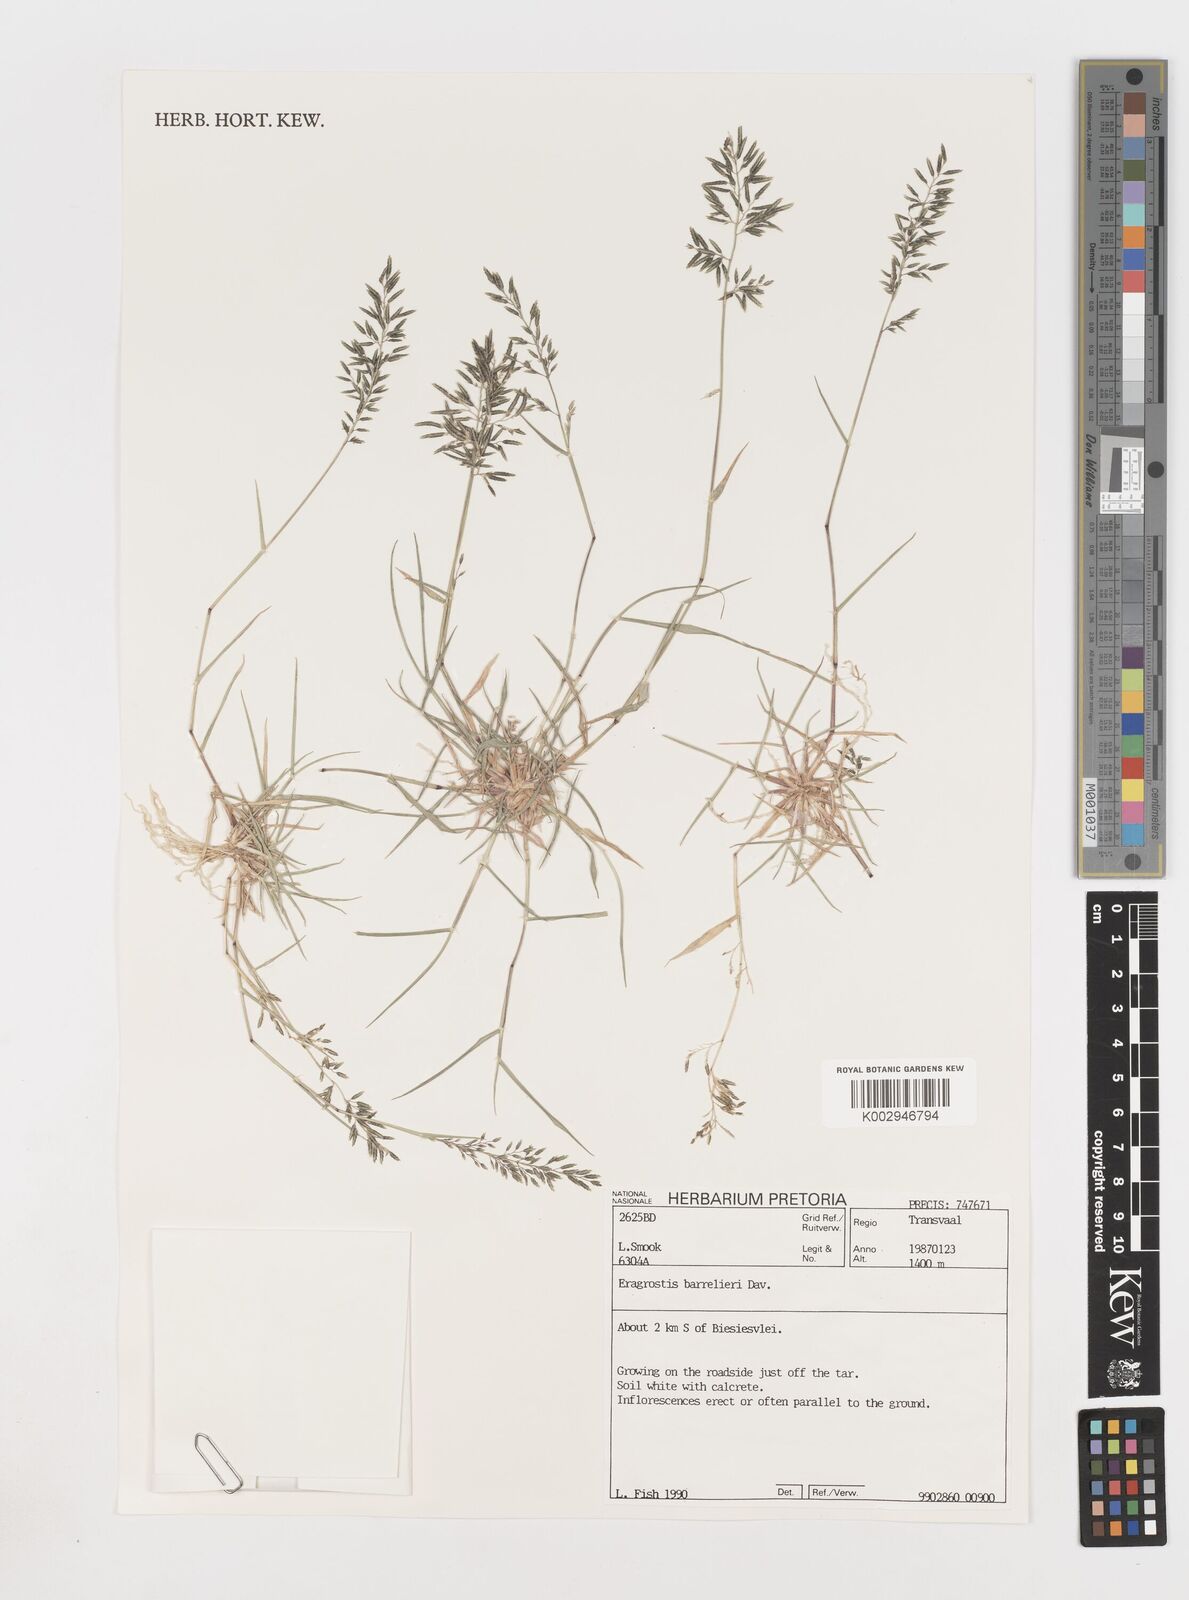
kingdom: Plantae
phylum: Tracheophyta
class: Liliopsida
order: Poales
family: Poaceae
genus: Eragrostis
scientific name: Eragrostis barrelieri
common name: Mediterranean lovegrass
